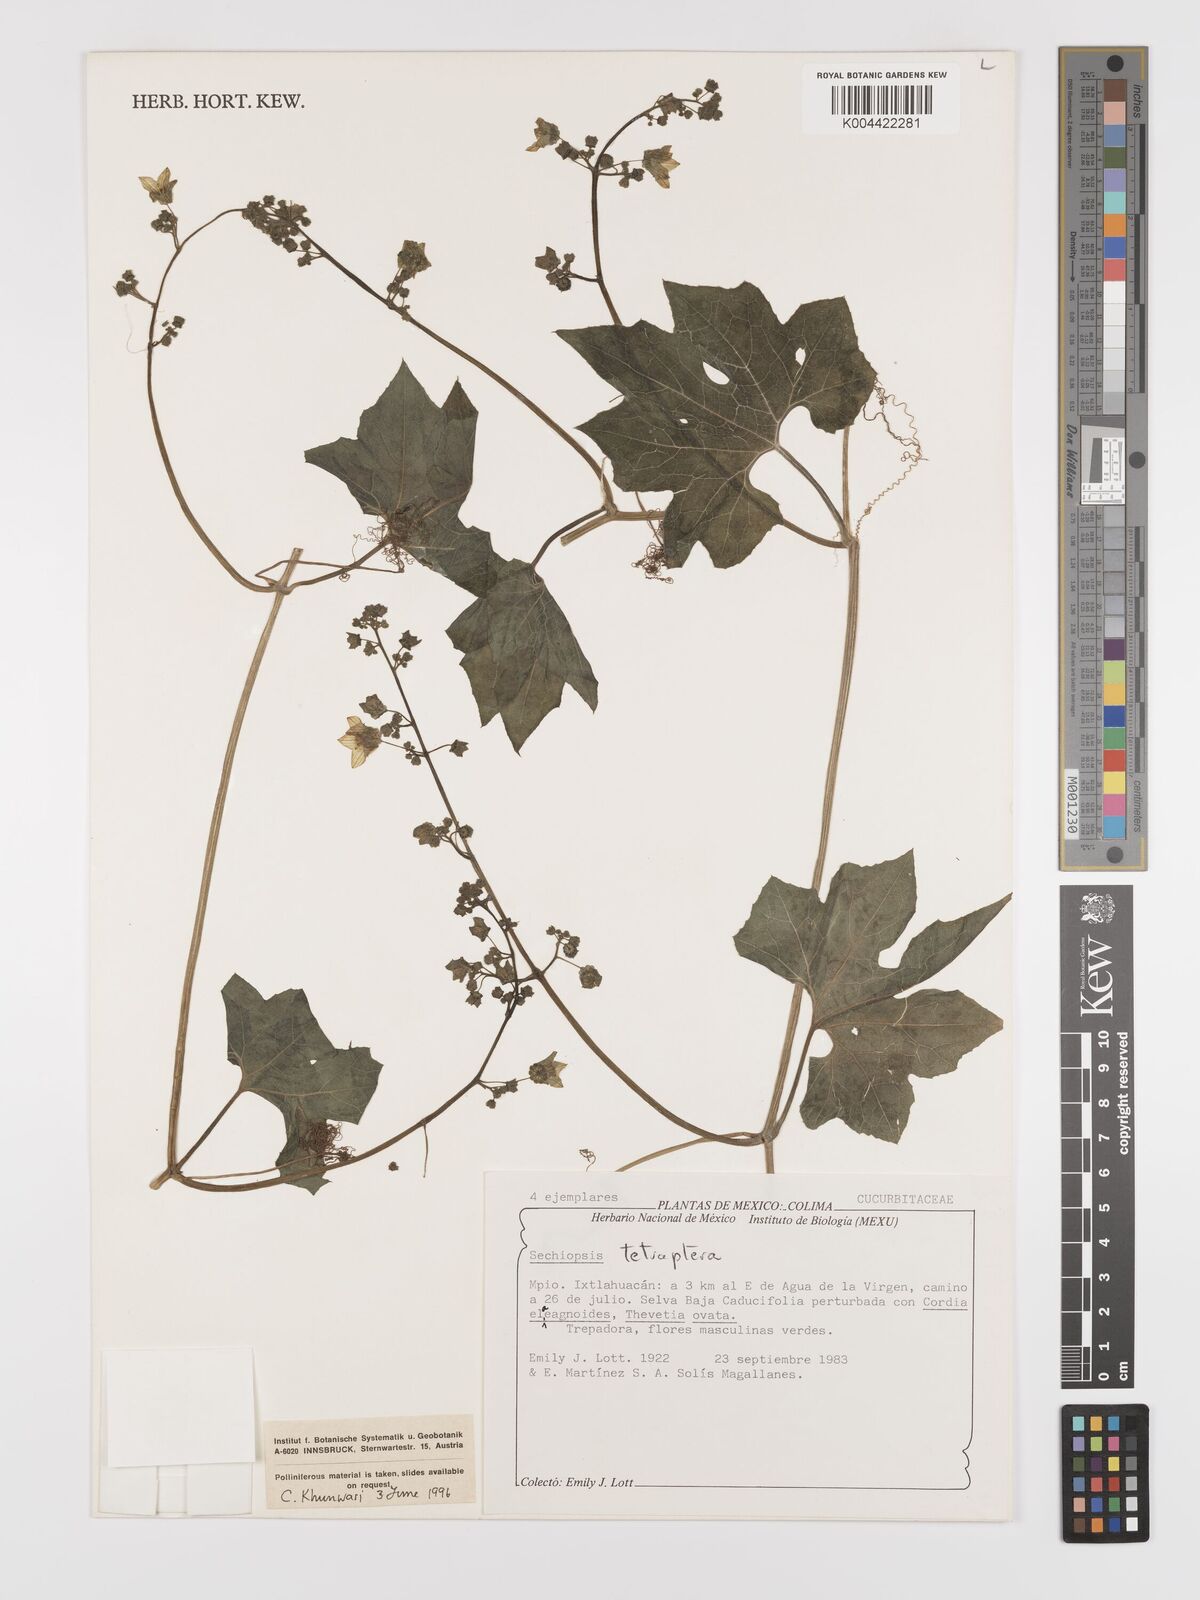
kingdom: Plantae
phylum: Tracheophyta
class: Magnoliopsida
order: Cucurbitales
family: Cucurbitaceae
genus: Sechiopsis
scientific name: Sechiopsis tetraptera
